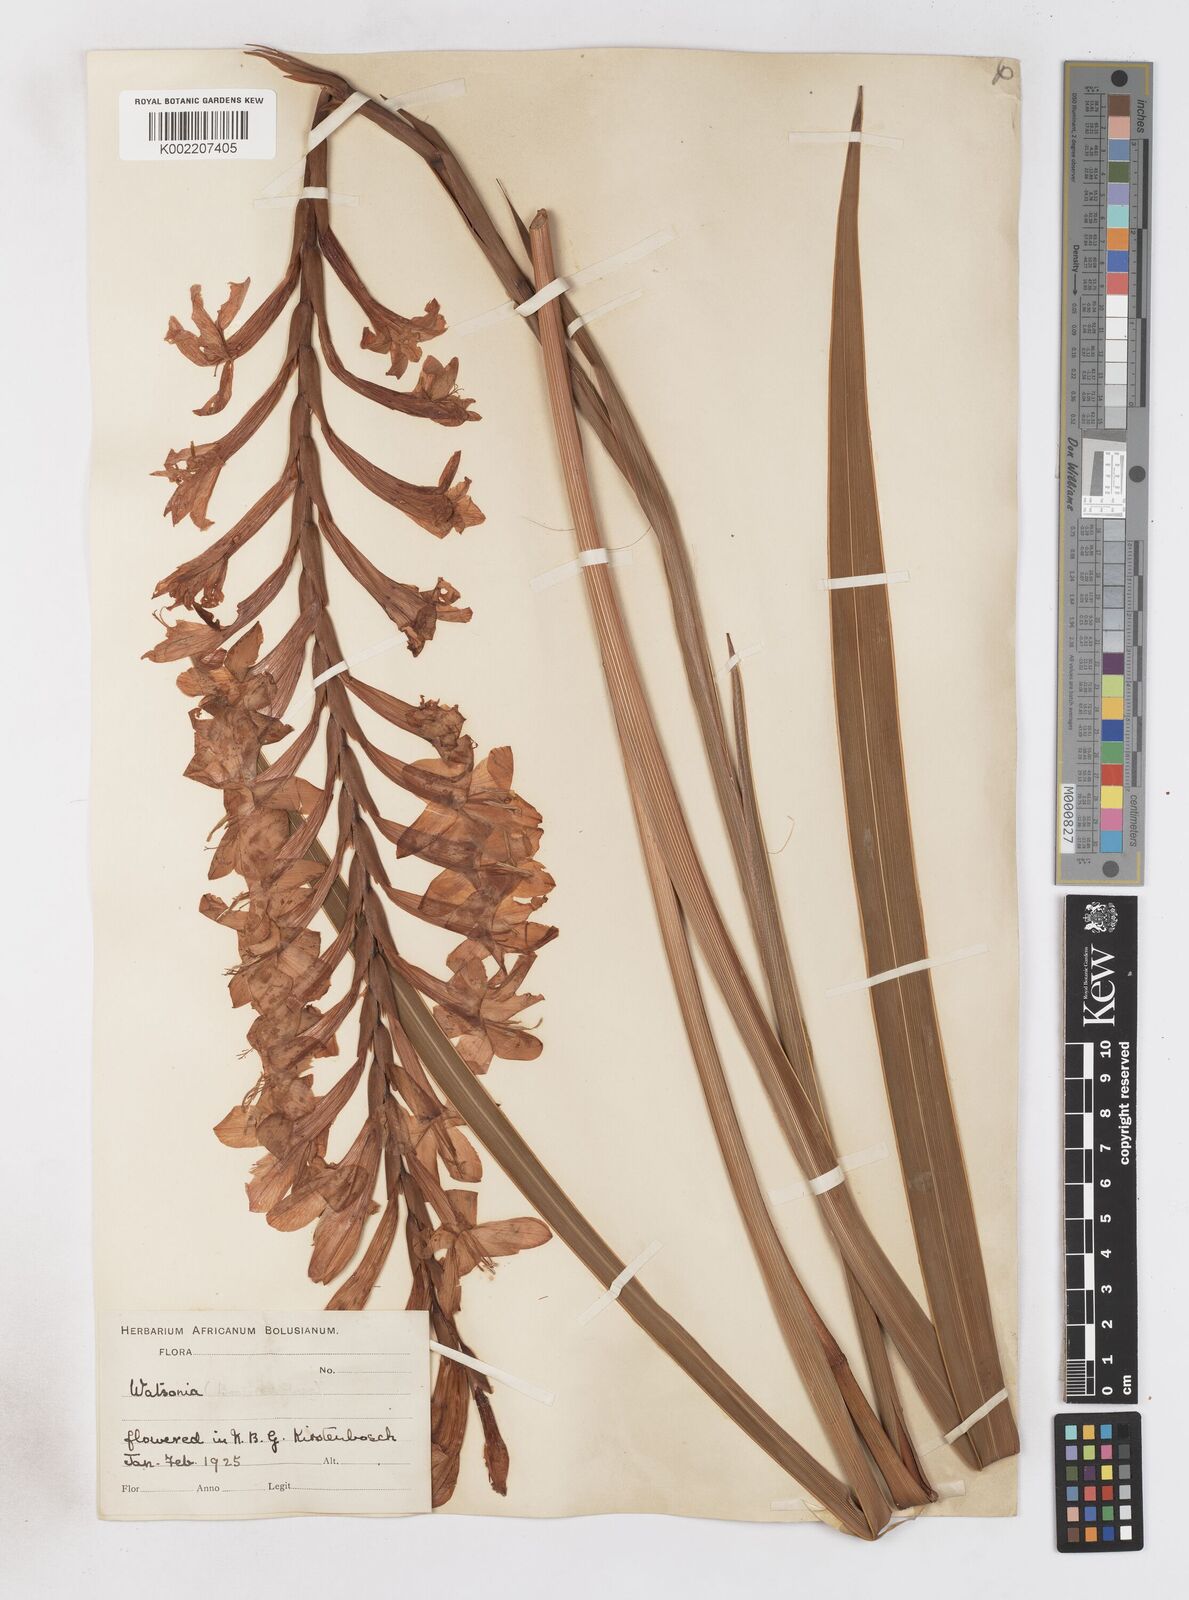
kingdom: Plantae
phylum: Tracheophyta
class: Liliopsida
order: Asparagales
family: Iridaceae
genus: Watsonia
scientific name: Watsonia pillansii
